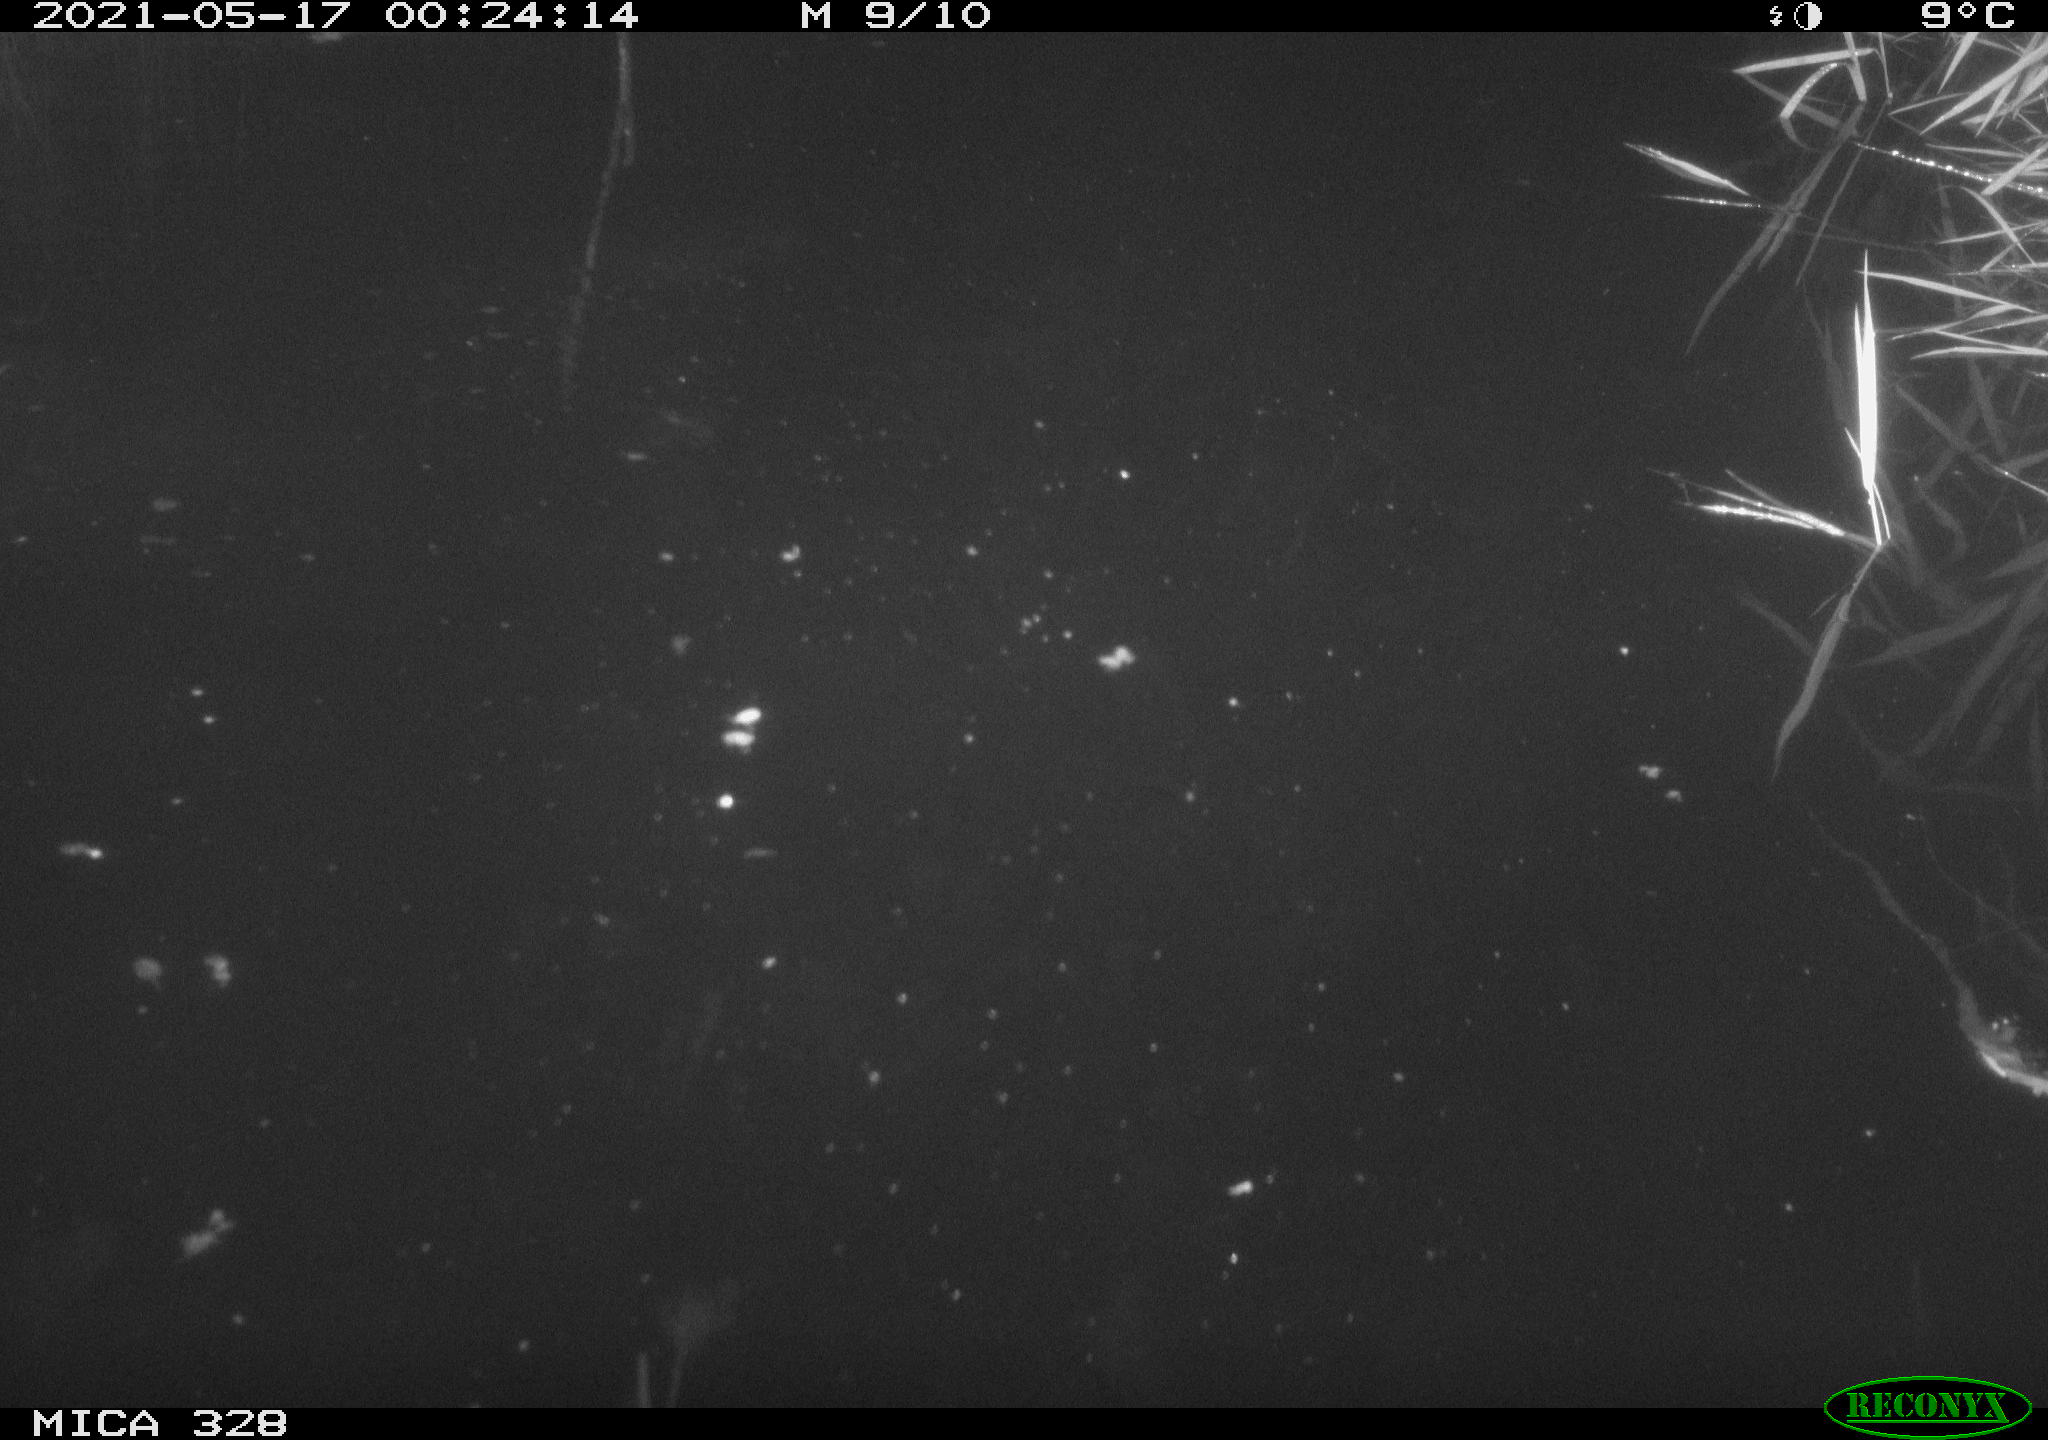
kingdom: Animalia
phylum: Chordata
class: Aves
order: Anseriformes
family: Anatidae
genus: Anas
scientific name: Anas platyrhynchos
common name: Mallard
